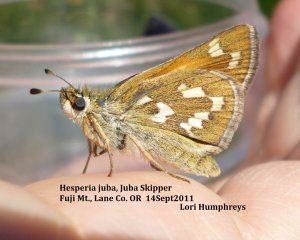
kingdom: Animalia
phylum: Arthropoda
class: Insecta
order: Lepidoptera
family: Hesperiidae
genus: Hesperia
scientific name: Hesperia juba
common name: Juba Skipper
